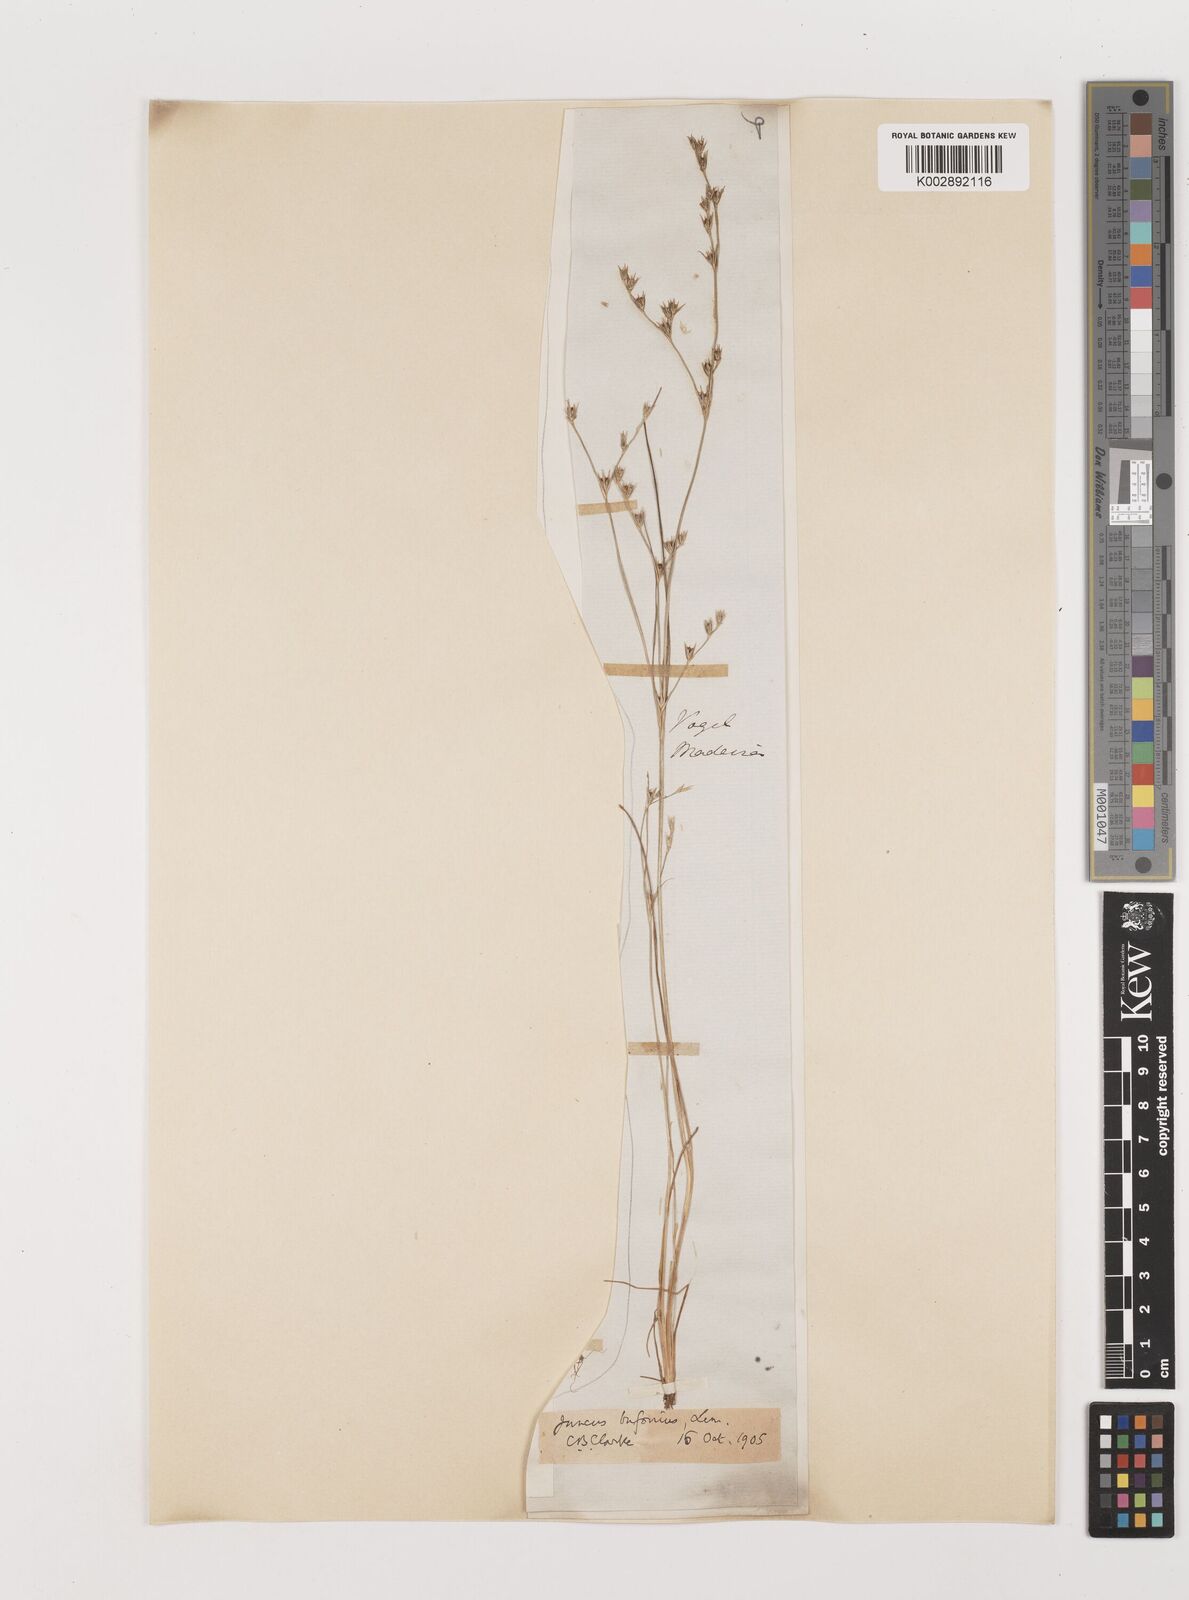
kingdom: Plantae
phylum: Tracheophyta
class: Liliopsida
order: Poales
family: Juncaceae
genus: Juncus
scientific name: Juncus bufonius
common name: Toad rush
